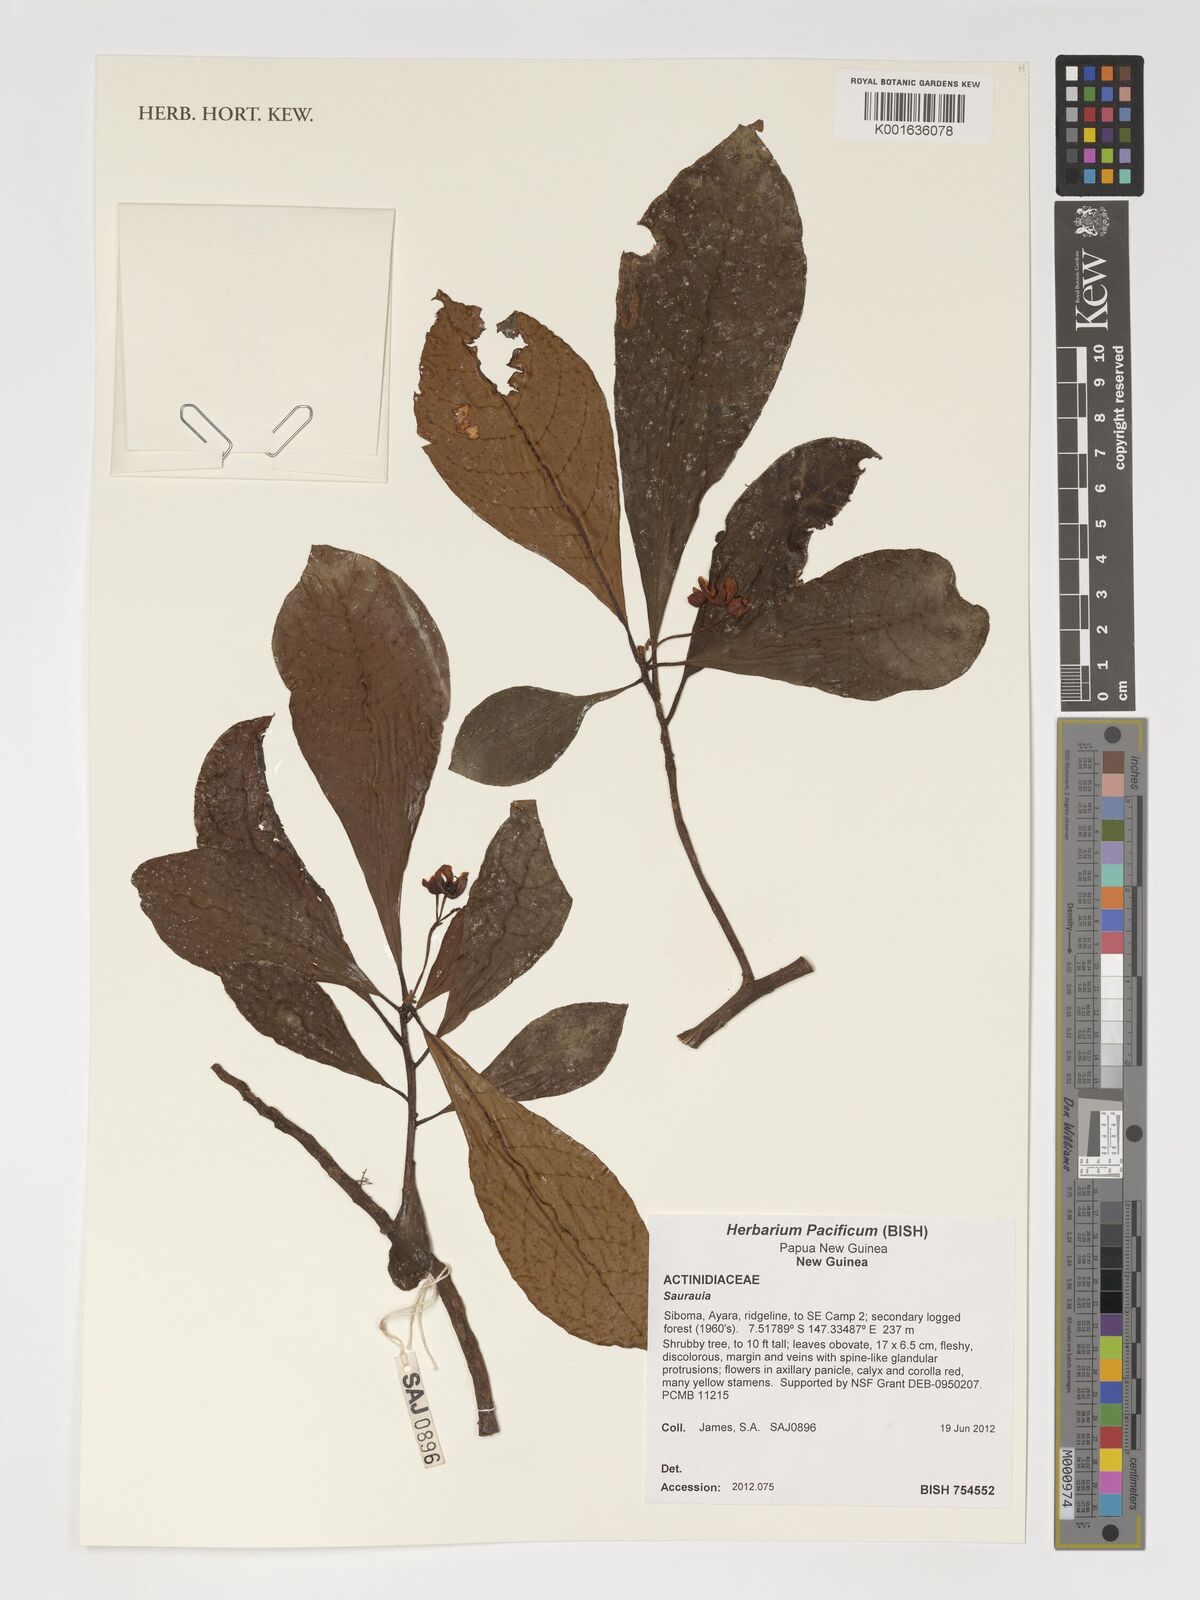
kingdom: Plantae
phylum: Tracheophyta
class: Magnoliopsida
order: Ericales
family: Actinidiaceae
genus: Saurauia
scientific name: Saurauia
